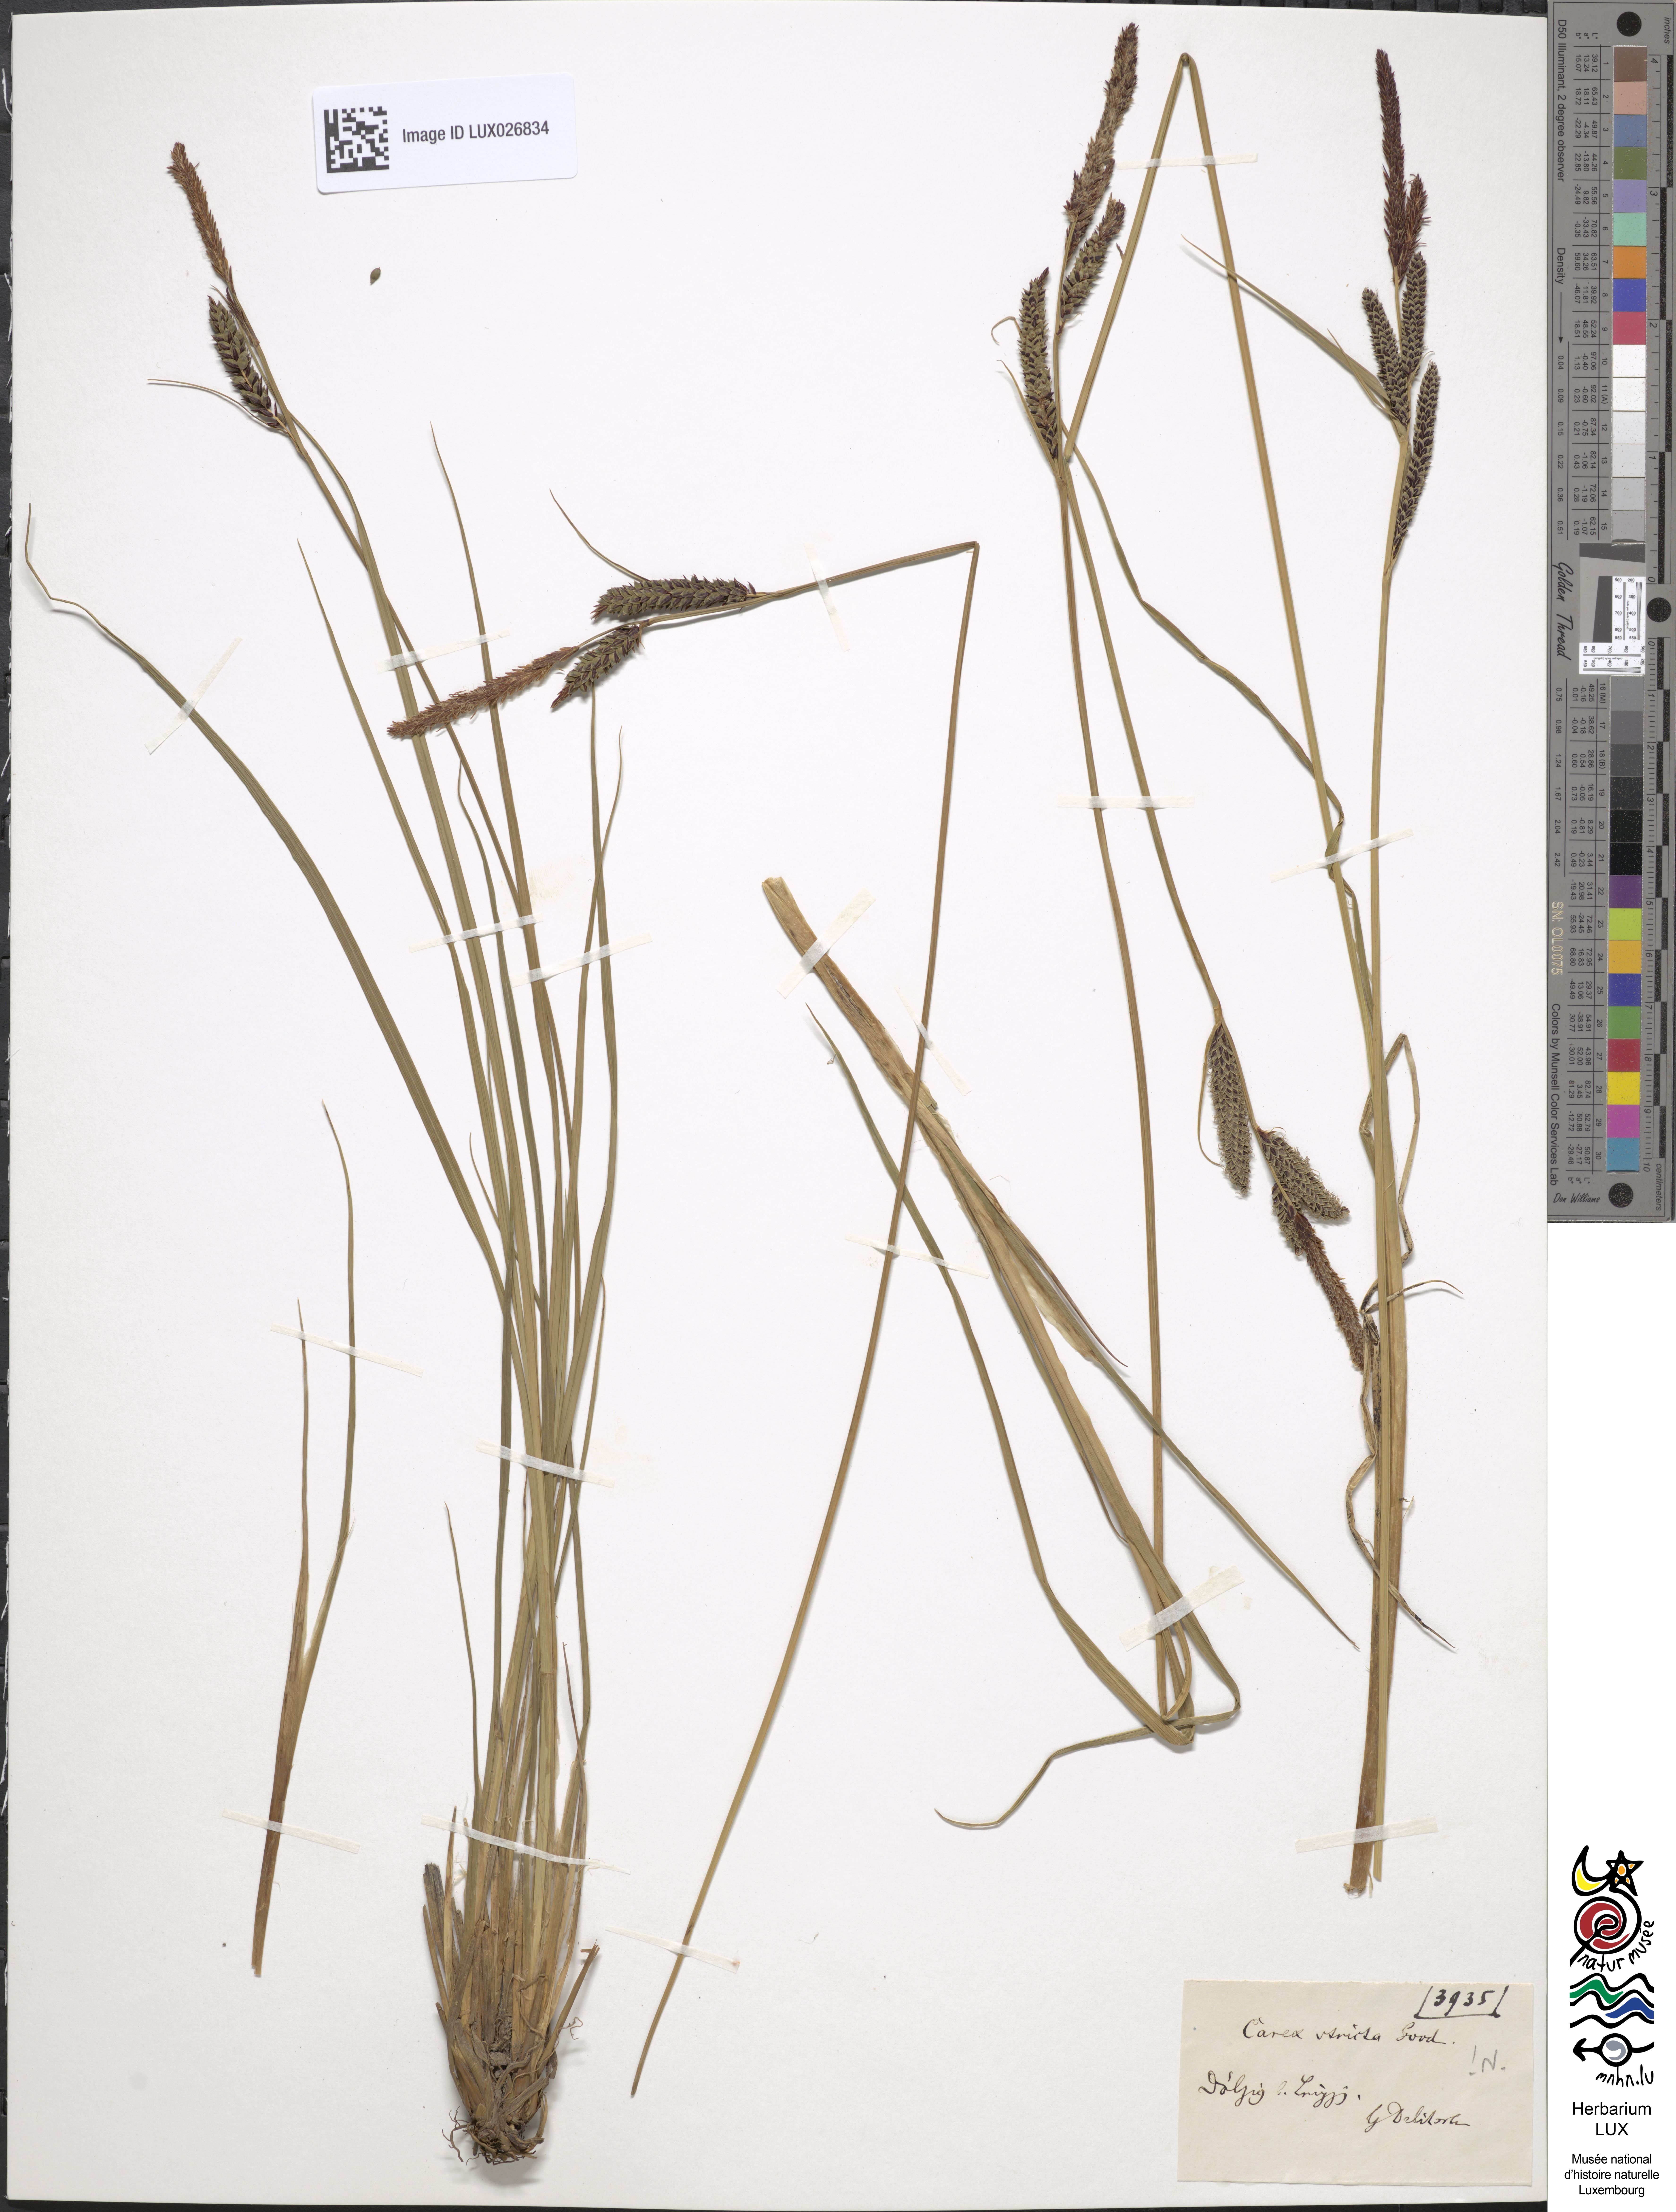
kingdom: Plantae
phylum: Tracheophyta
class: Liliopsida
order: Poales
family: Cyperaceae
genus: Carex
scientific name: Carex elata
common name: Tufted sedge
